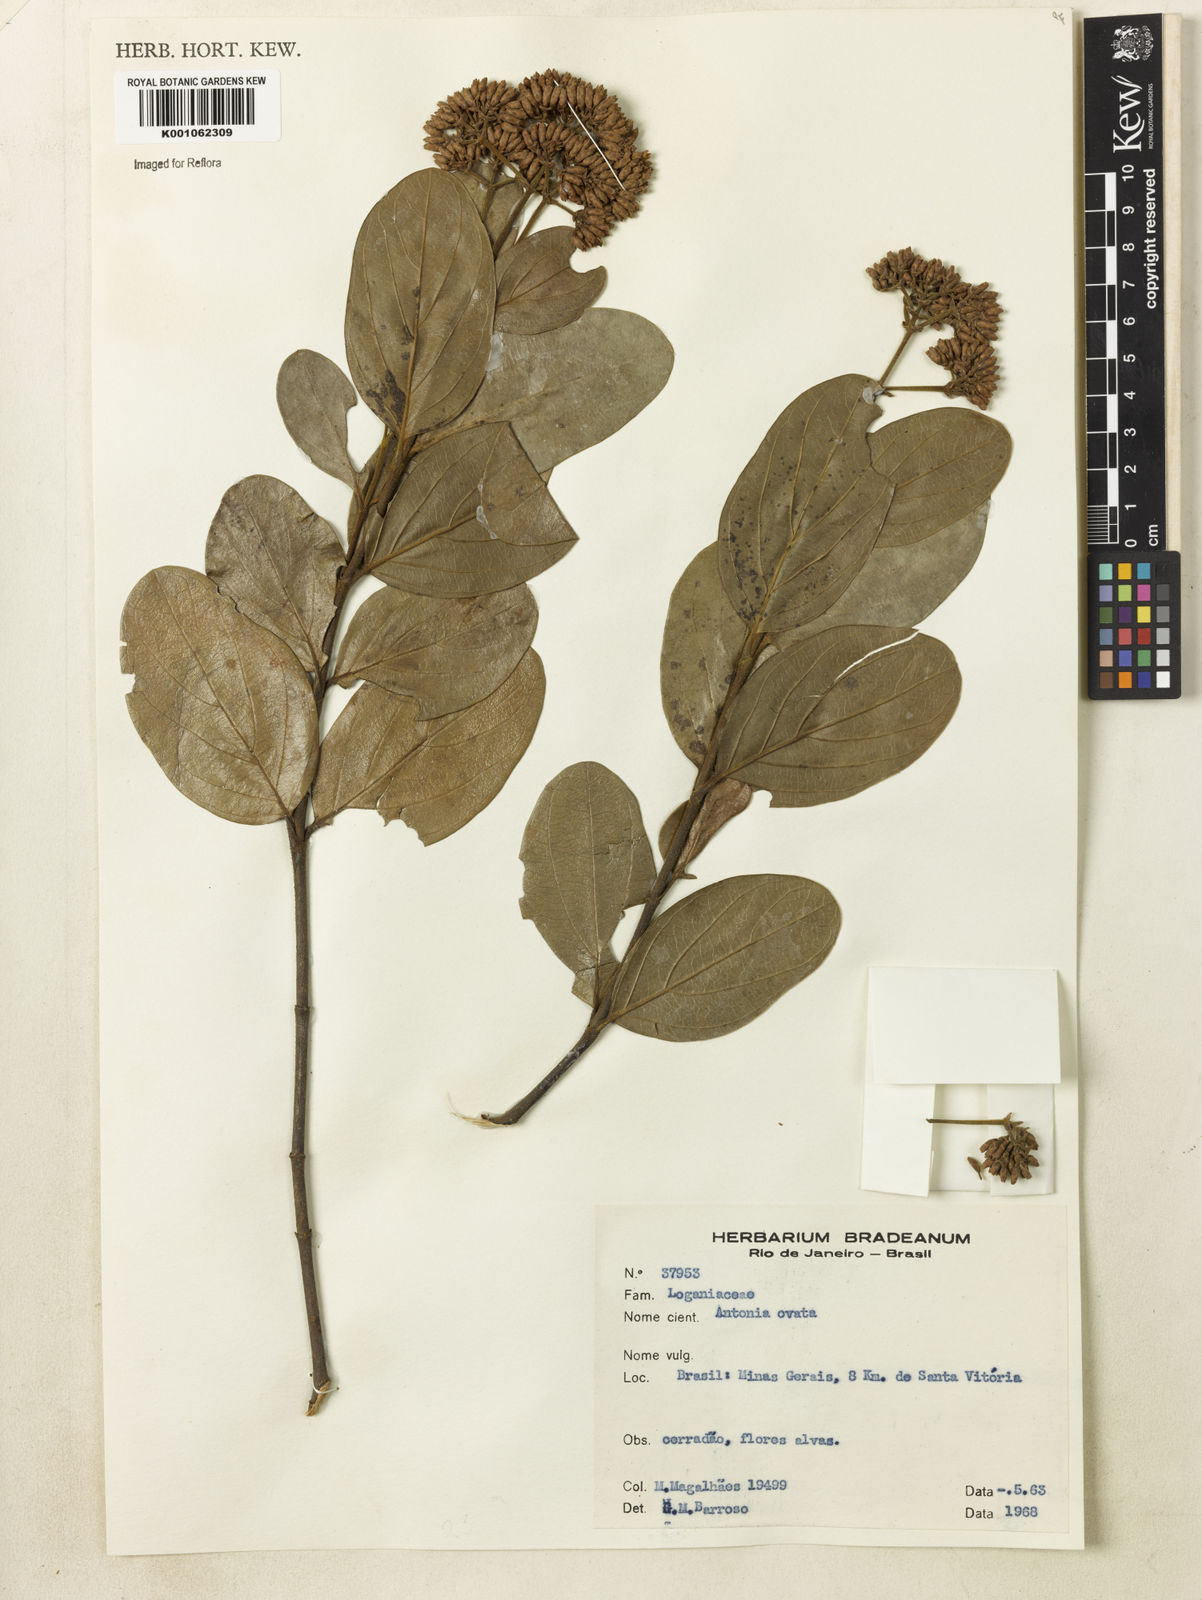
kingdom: Plantae
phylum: Tracheophyta
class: Magnoliopsida
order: Gentianales
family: Loganiaceae
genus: Antonia
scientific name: Antonia ovata
